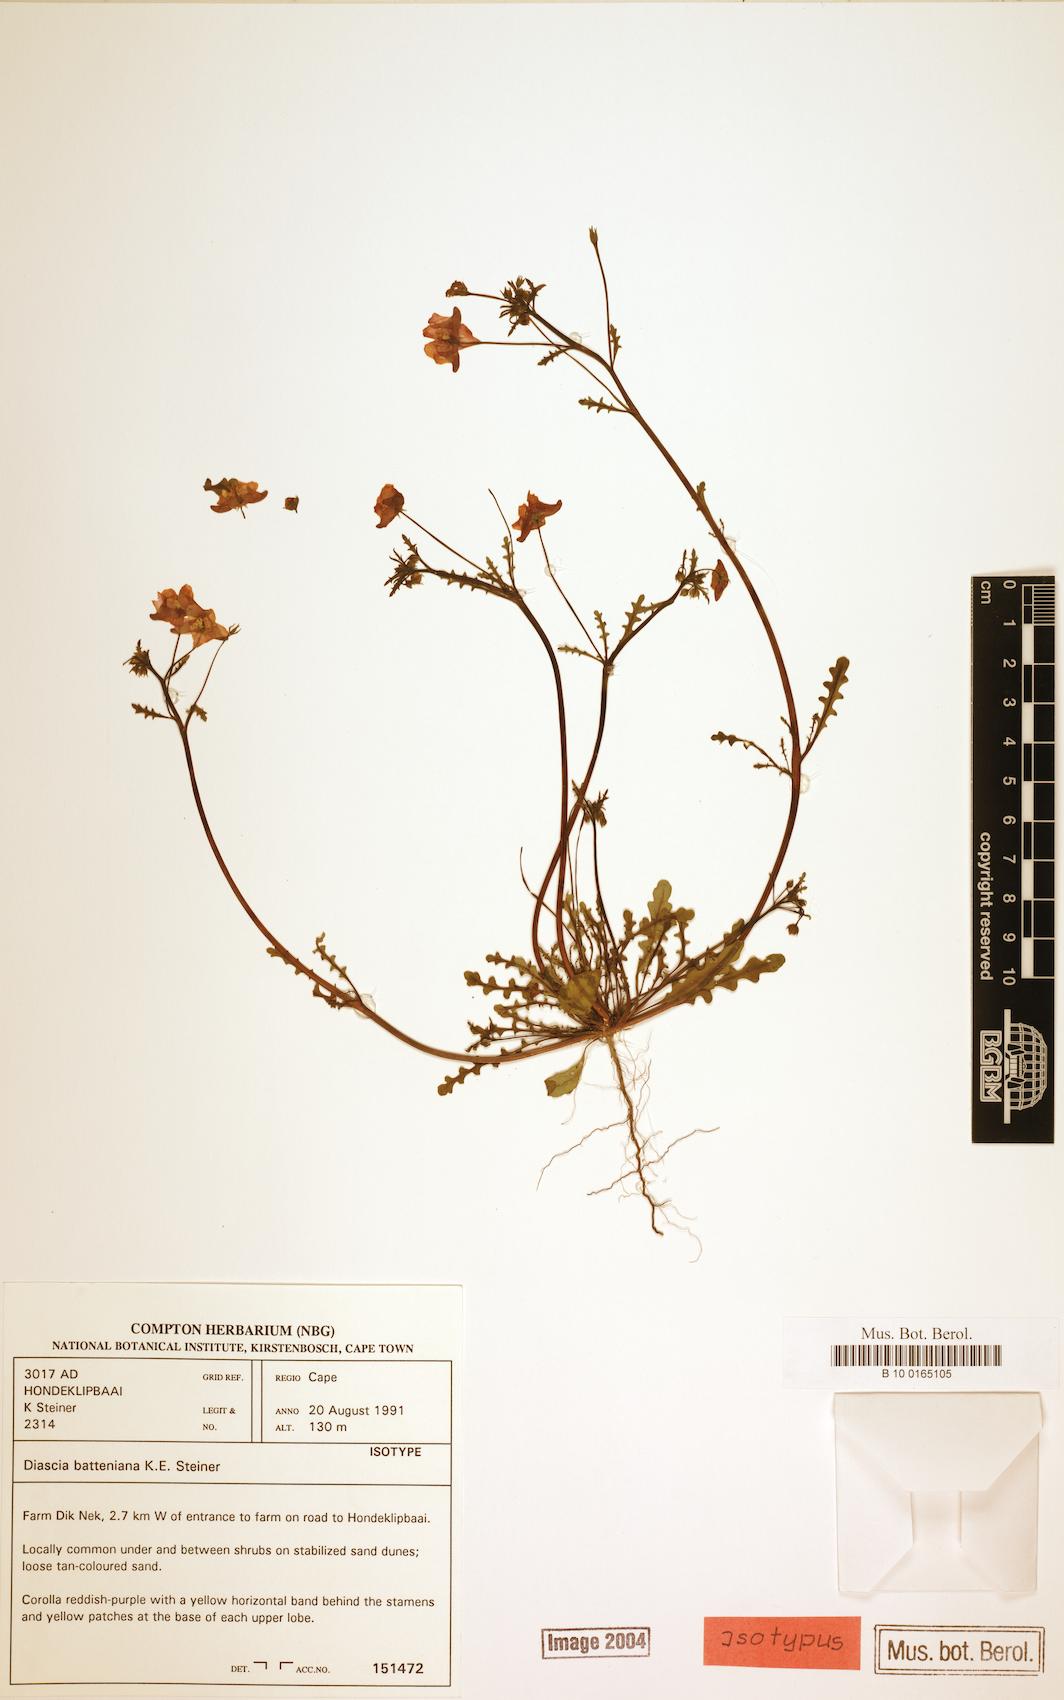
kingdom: Plantae
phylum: Tracheophyta
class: Magnoliopsida
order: Lamiales
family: Scrophulariaceae
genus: Diascia
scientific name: Diascia batteniana
